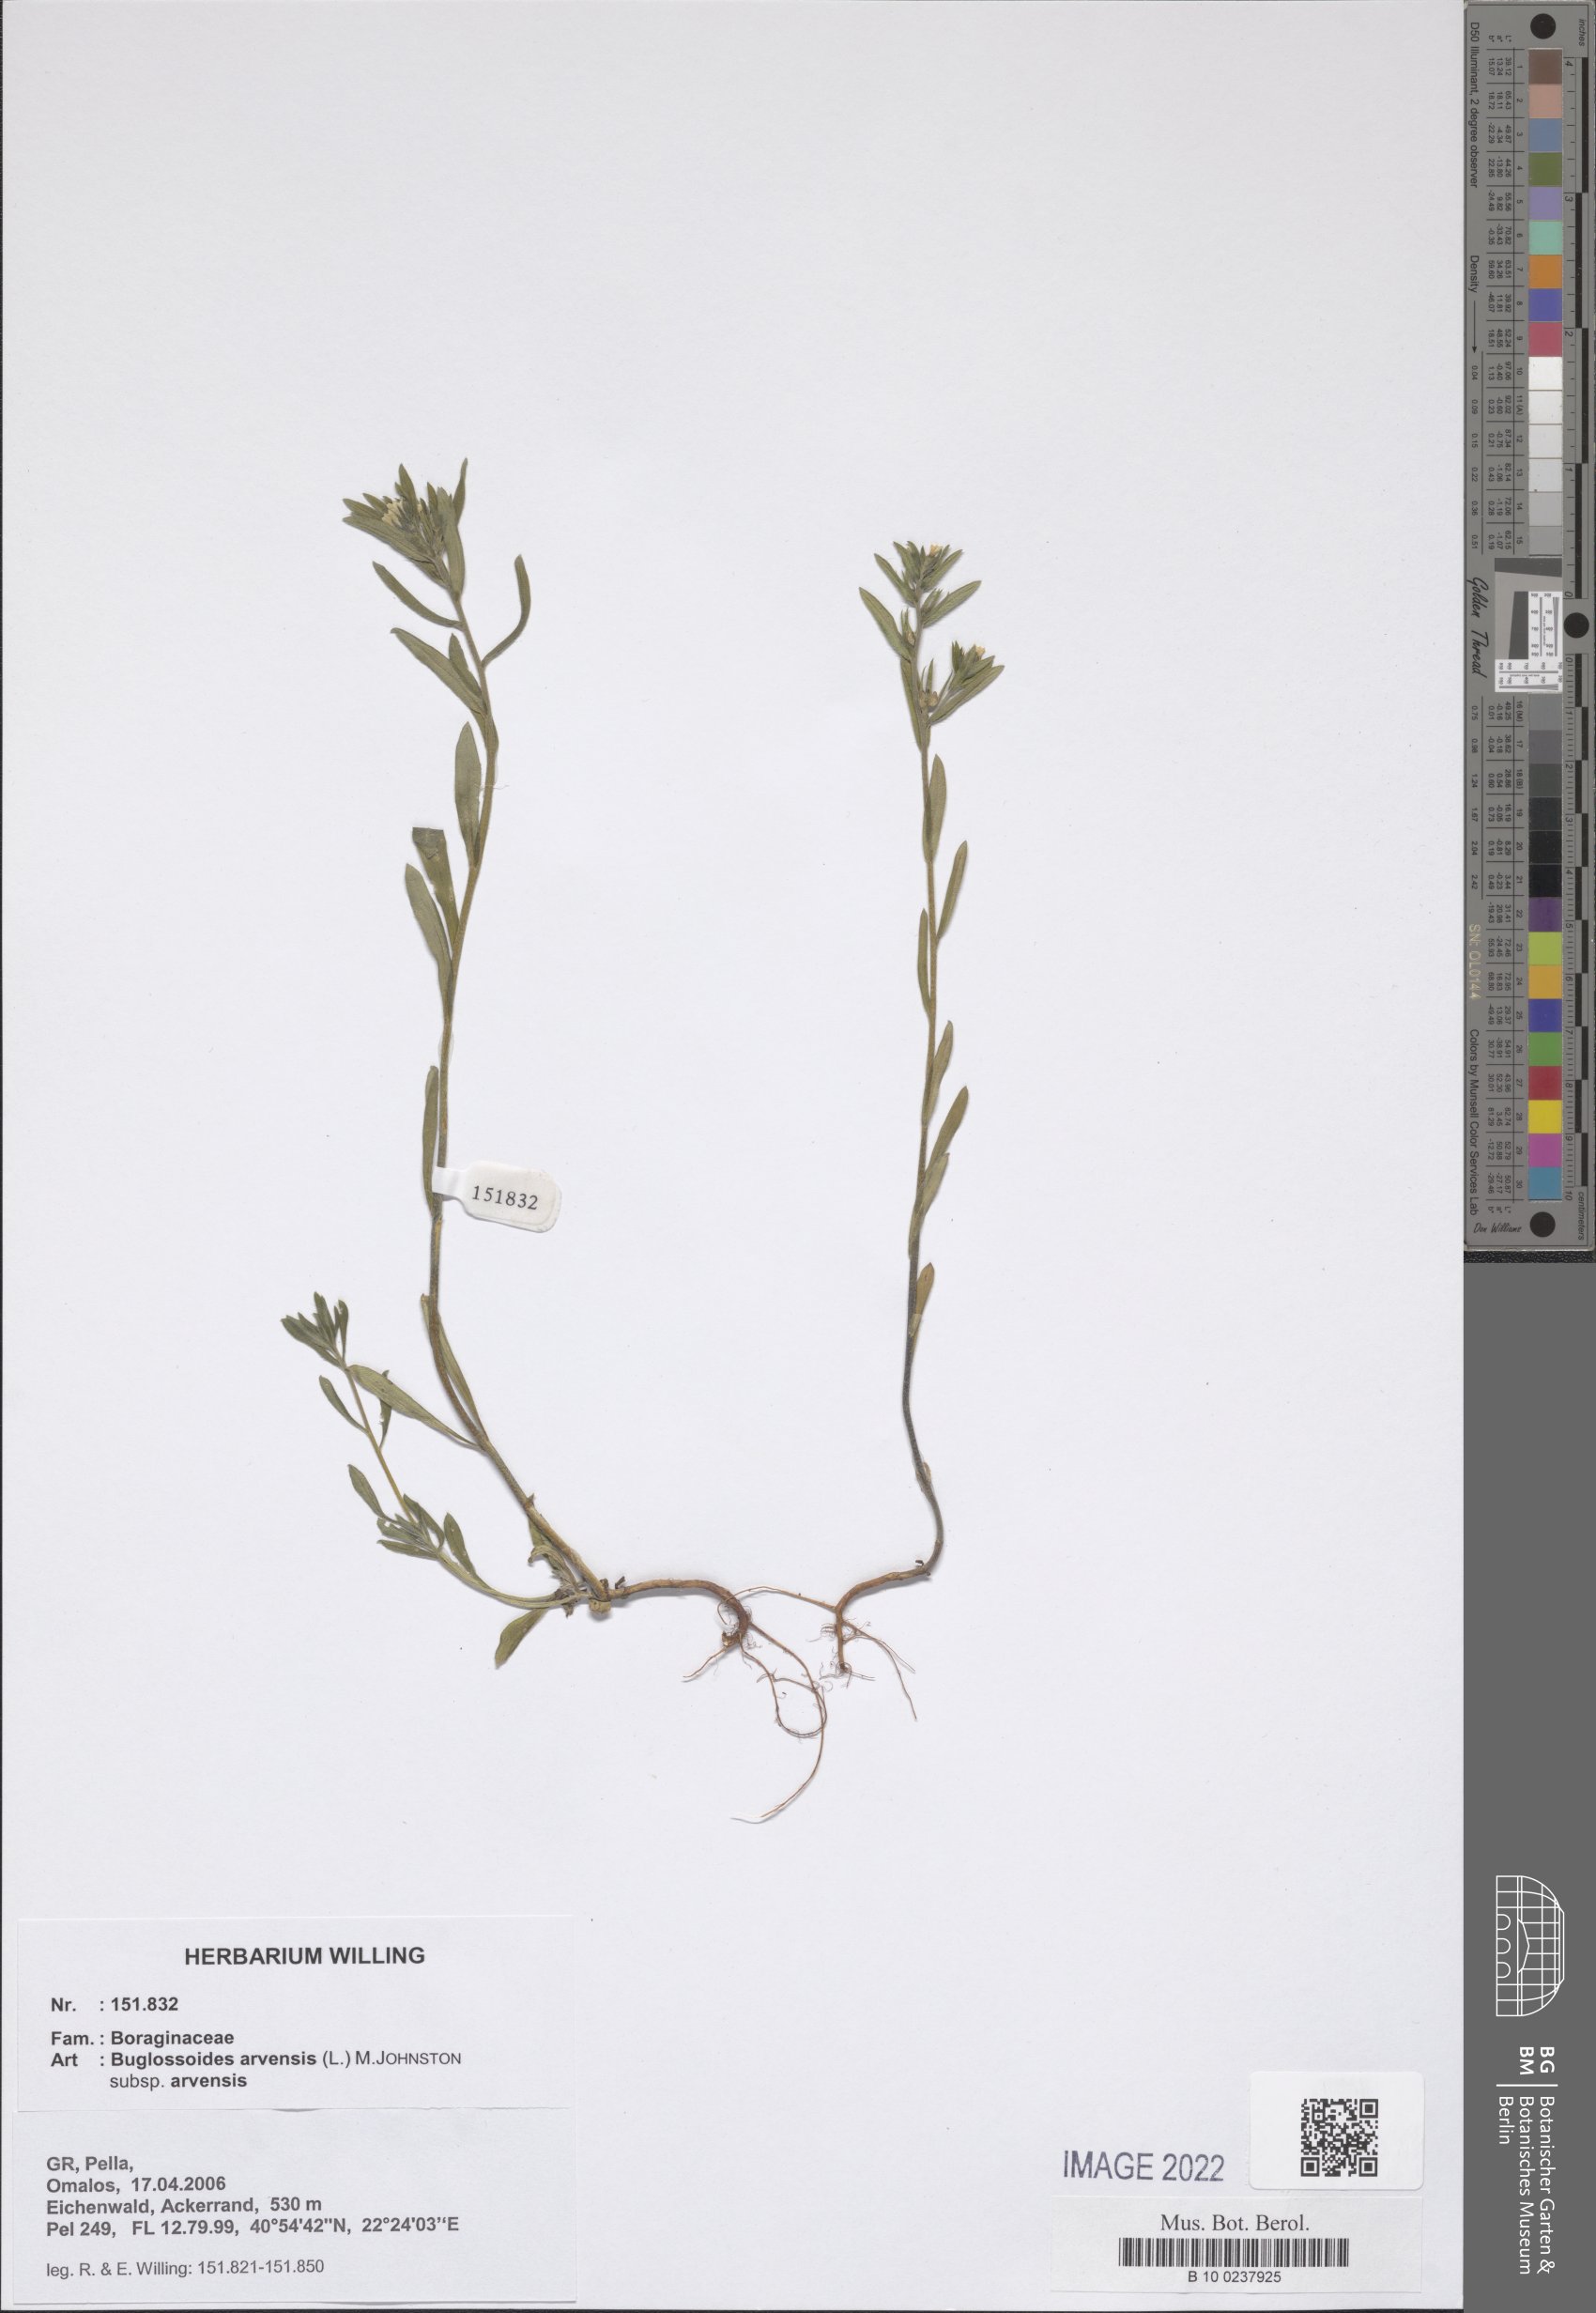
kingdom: Plantae
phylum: Tracheophyta
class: Magnoliopsida
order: Boraginales
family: Boraginaceae
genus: Buglossoides
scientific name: Buglossoides arvensis
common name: Corn gromwell
